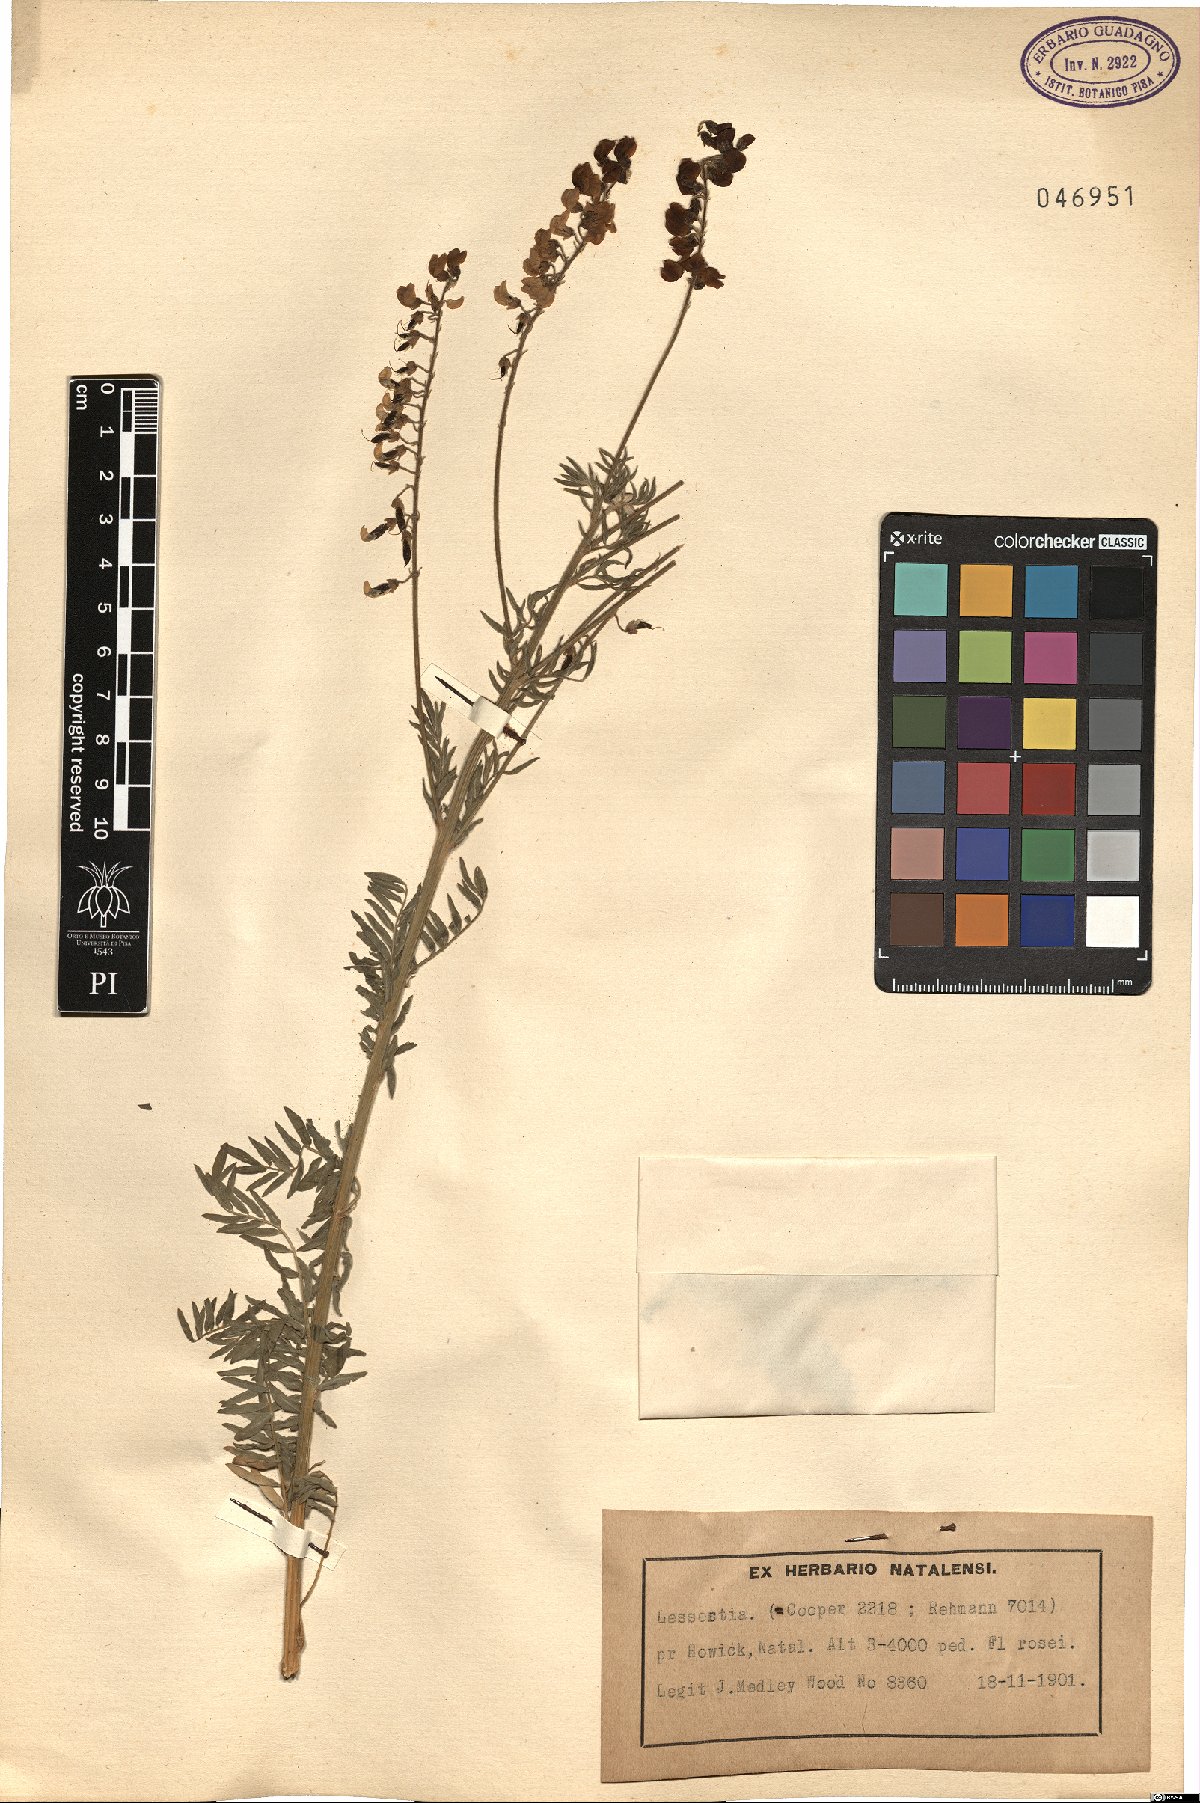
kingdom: Plantae
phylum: Tracheophyta
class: Magnoliopsida
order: Fabales
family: Fabaceae
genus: Lessertia
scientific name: Lessertia
